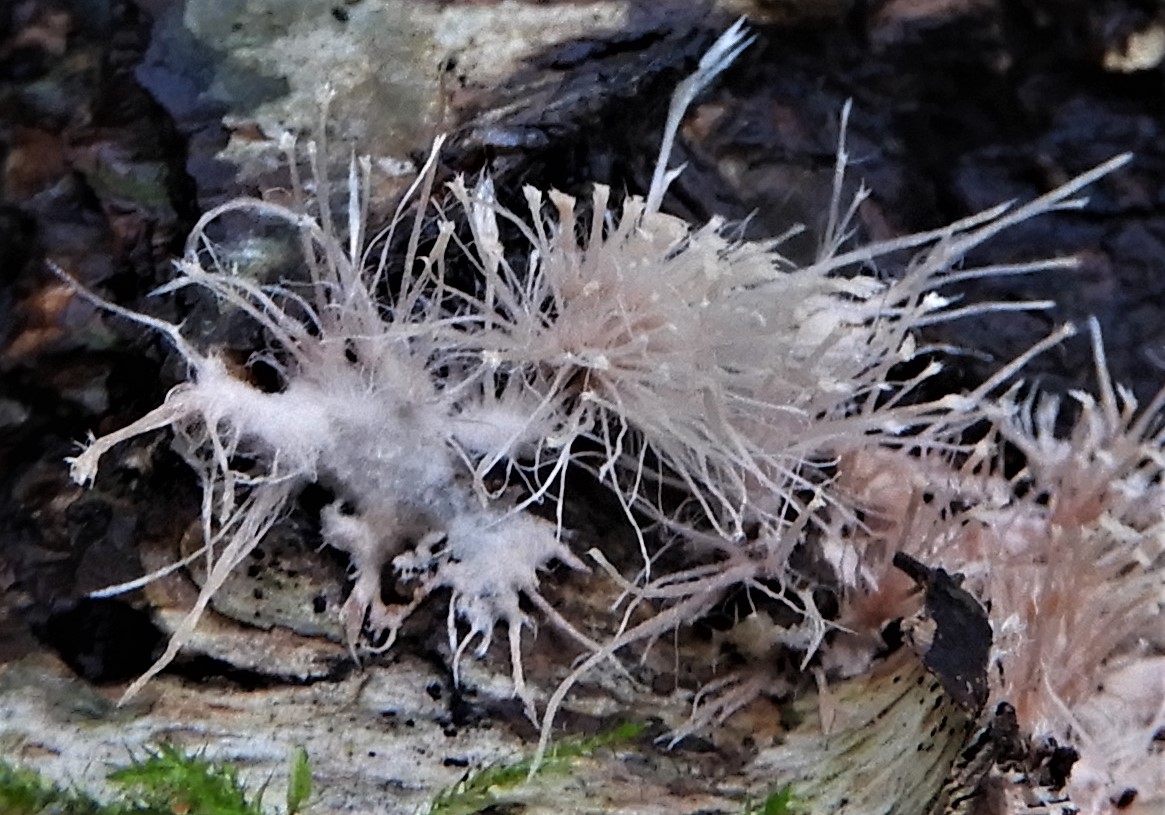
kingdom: Fungi
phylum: Basidiomycota
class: Agaricomycetes
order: Corticiales
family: Corticiaceae
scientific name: Corticiaceae
